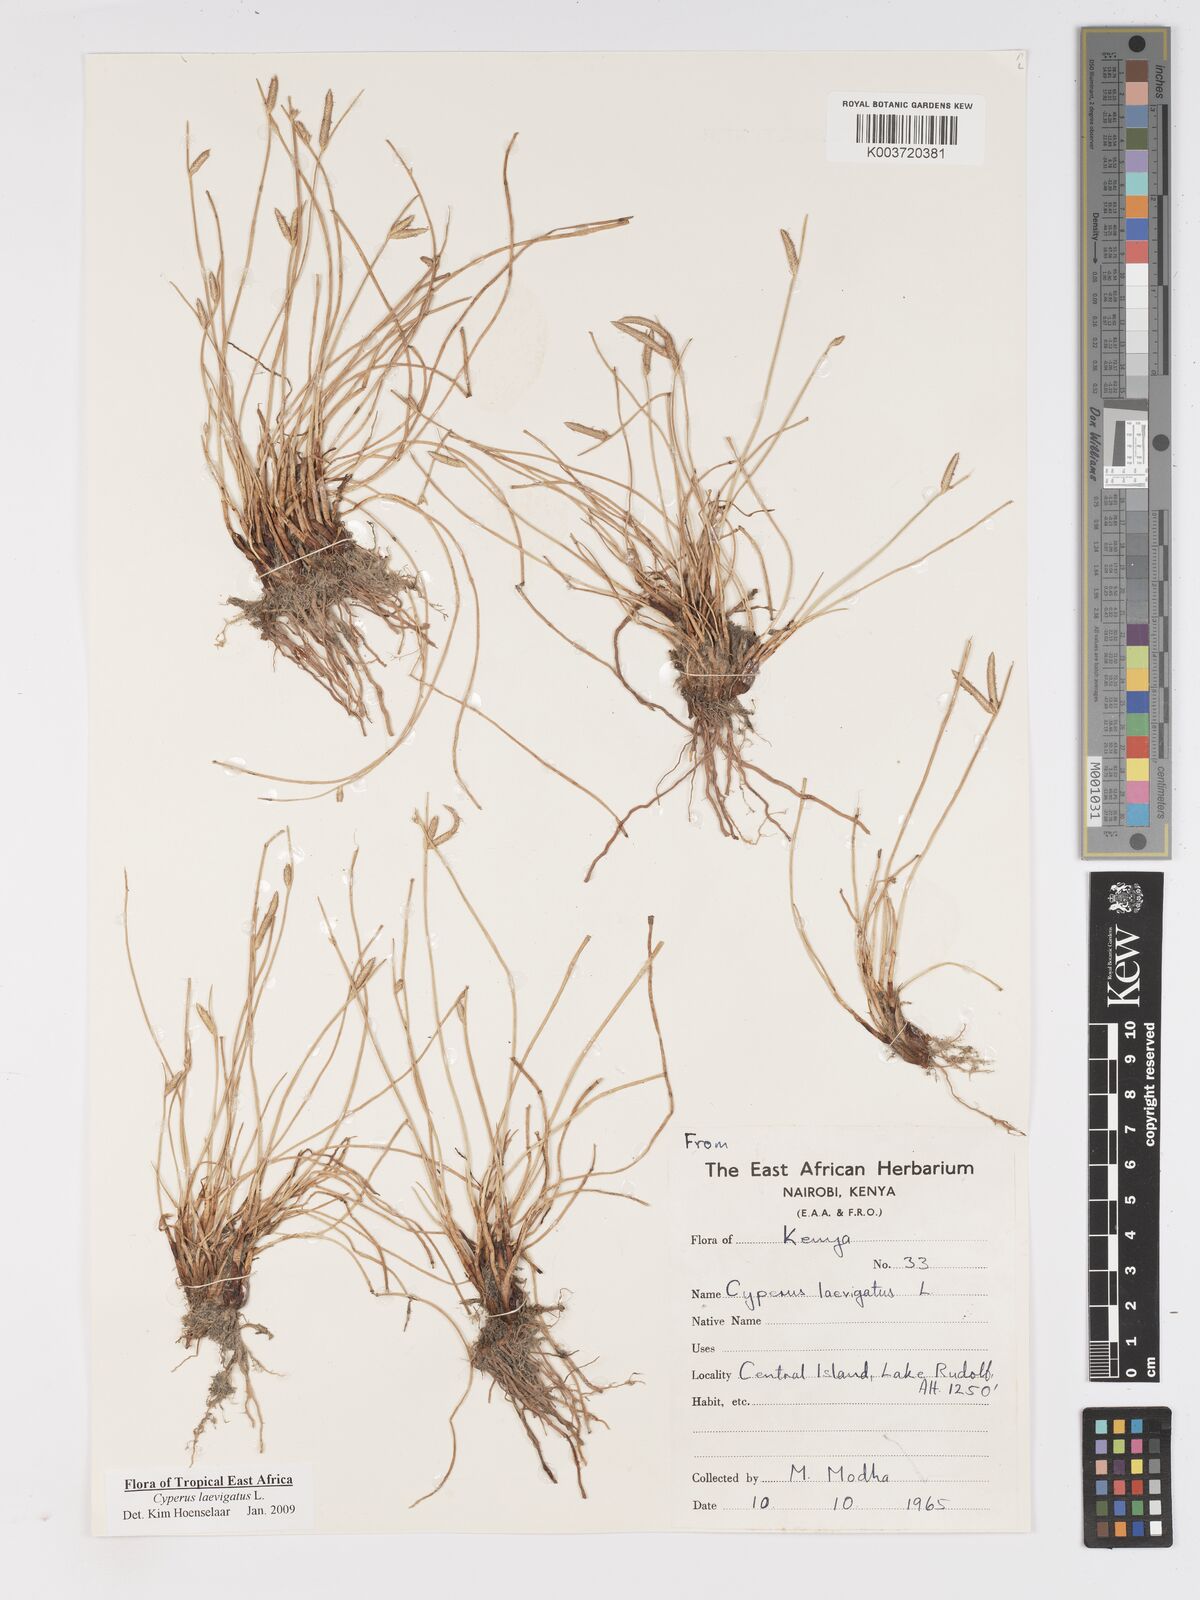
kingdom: Plantae
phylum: Tracheophyta
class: Liliopsida
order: Poales
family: Cyperaceae
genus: Cyperus
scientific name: Cyperus laevigatus
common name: Smooth flat sedge
